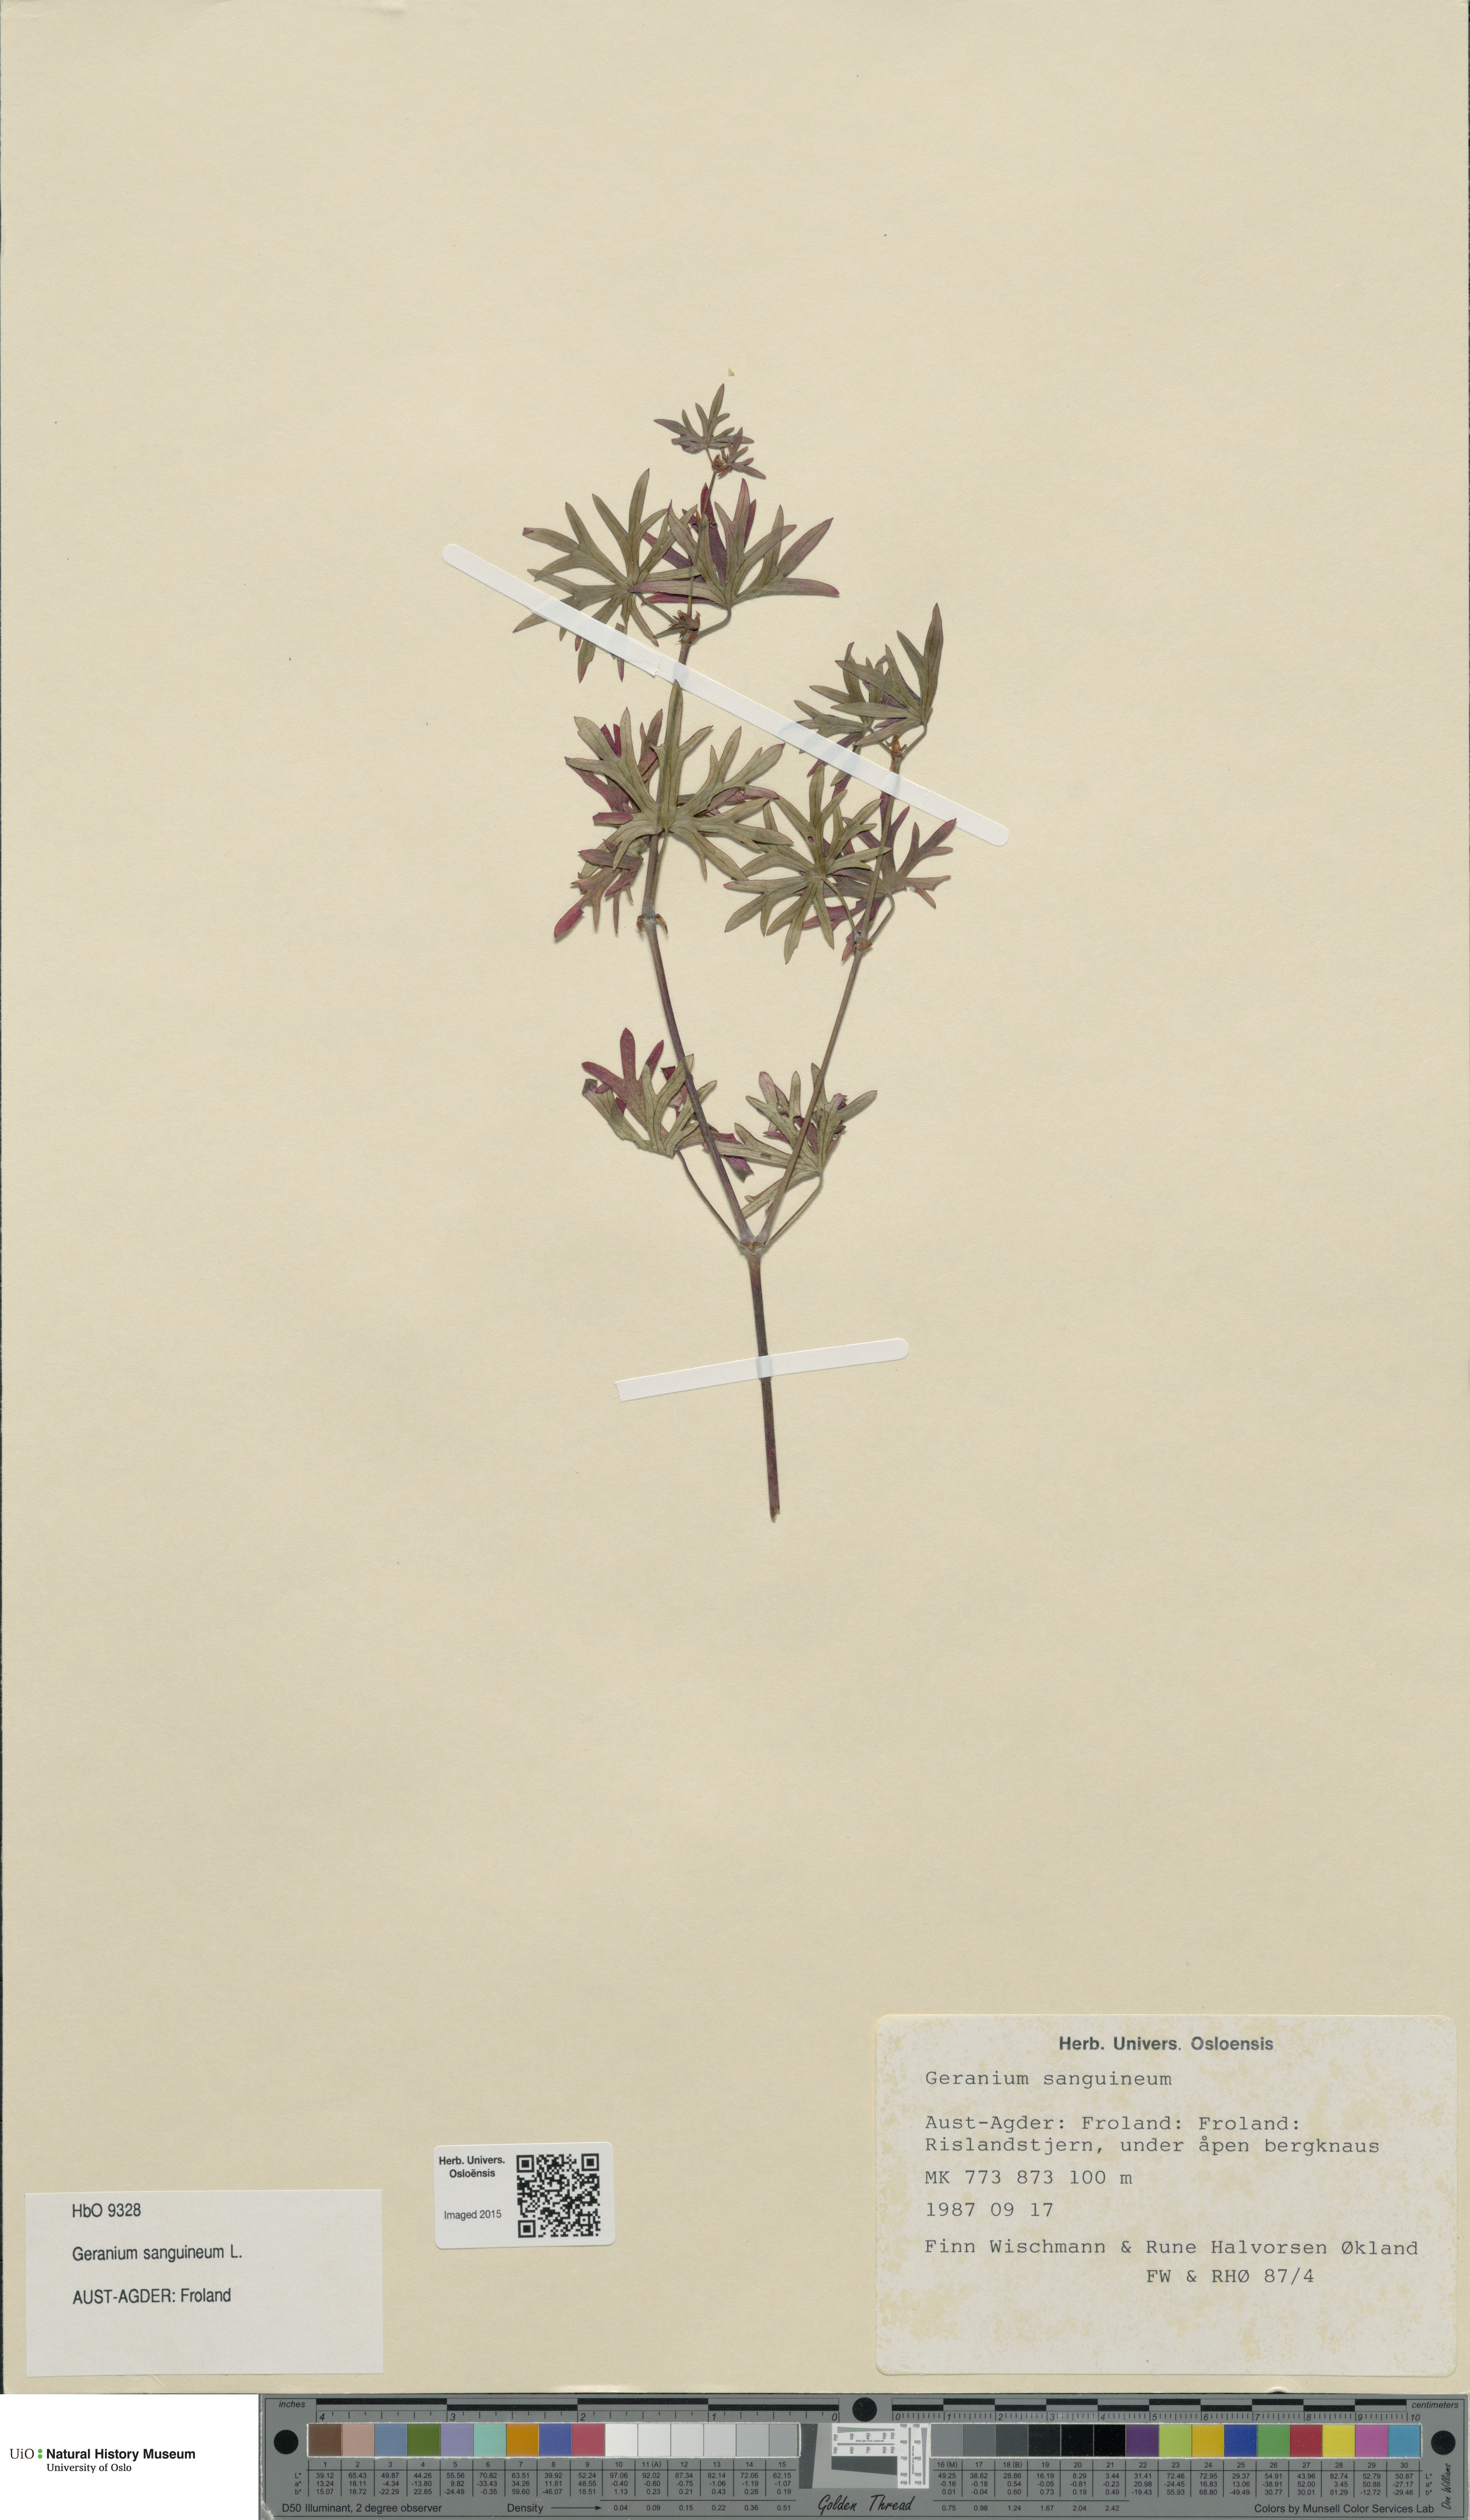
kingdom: Plantae
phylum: Tracheophyta
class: Magnoliopsida
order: Geraniales
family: Geraniaceae
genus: Geranium
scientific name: Geranium sanguineum
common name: Bloody crane's-bill
